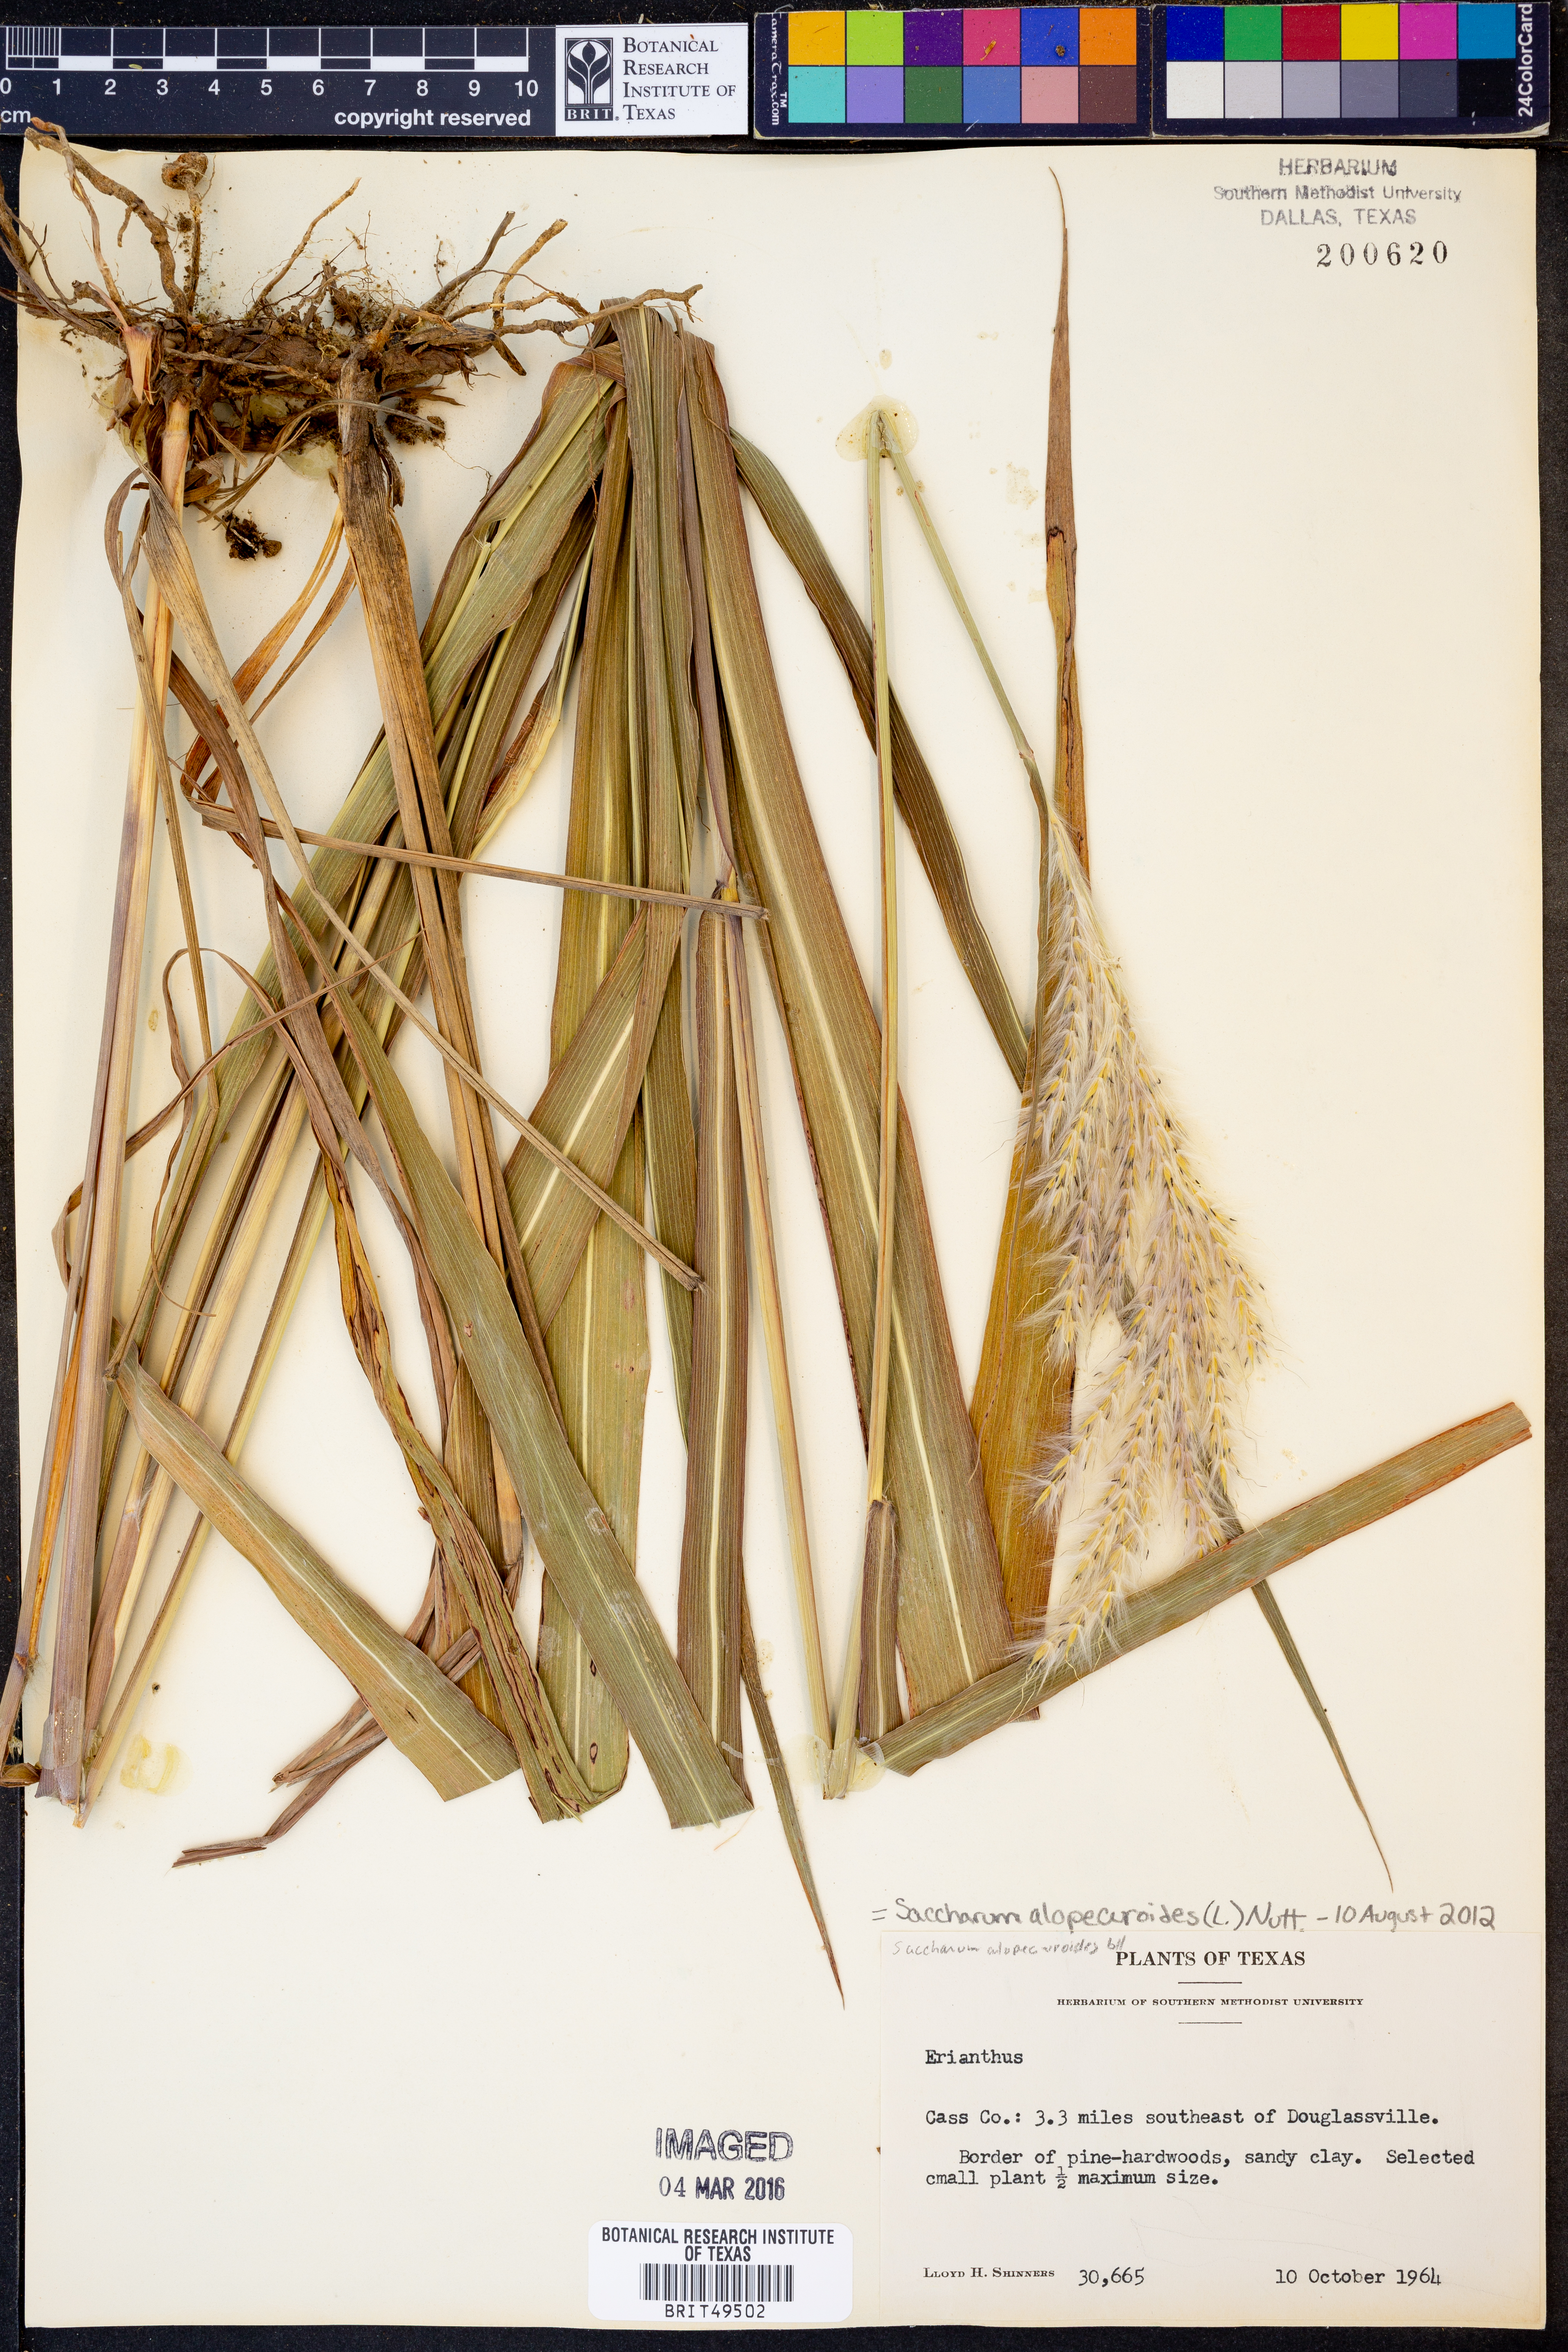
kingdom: Plantae
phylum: Tracheophyta
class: Liliopsida
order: Poales
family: Poaceae
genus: Erianthus
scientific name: Erianthus alopecuroides
